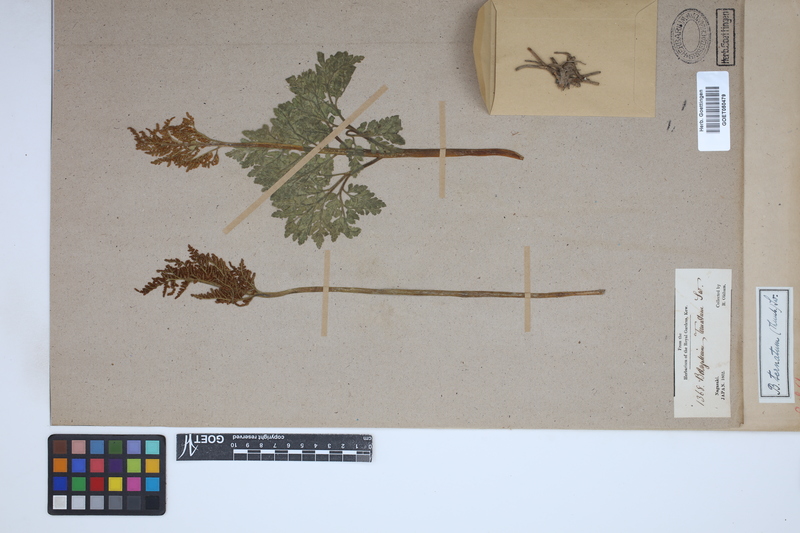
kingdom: Plantae
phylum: Tracheophyta
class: Polypodiopsida
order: Ophioglossales
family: Ophioglossaceae
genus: Sceptridium
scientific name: Sceptridium
